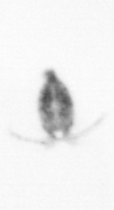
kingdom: Animalia
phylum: Arthropoda
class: Copepoda
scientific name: Copepoda
